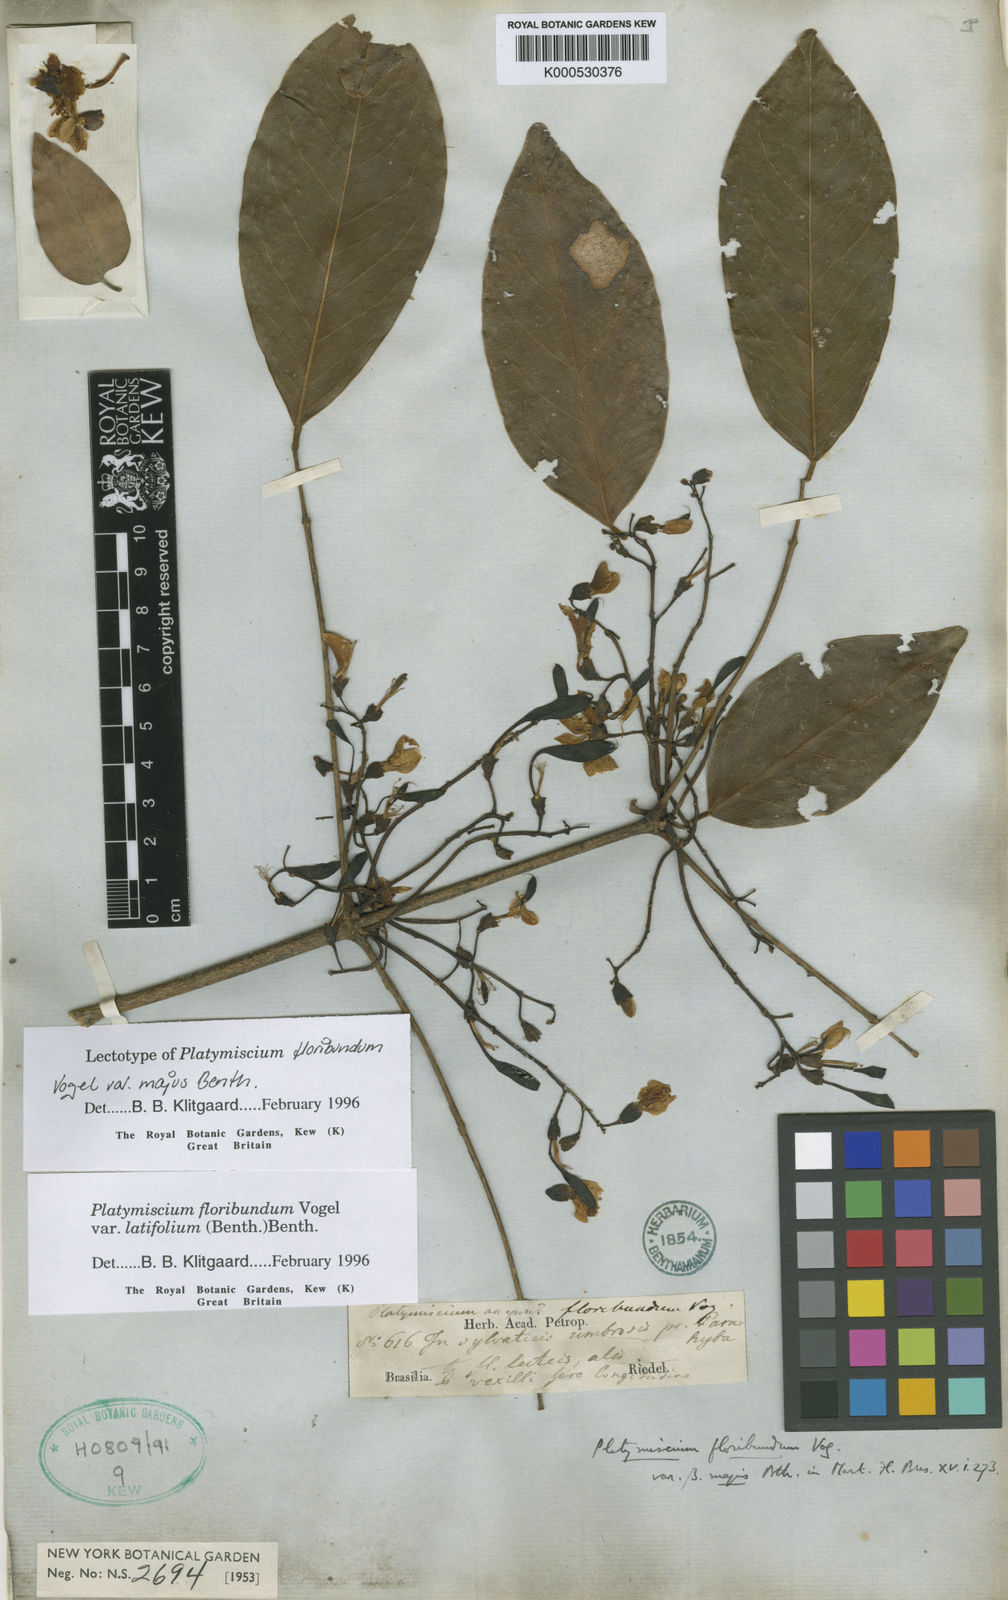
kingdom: Plantae
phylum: Tracheophyta
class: Magnoliopsida
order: Fabales
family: Fabaceae
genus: Platymiscium
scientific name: Platymiscium floribundum
